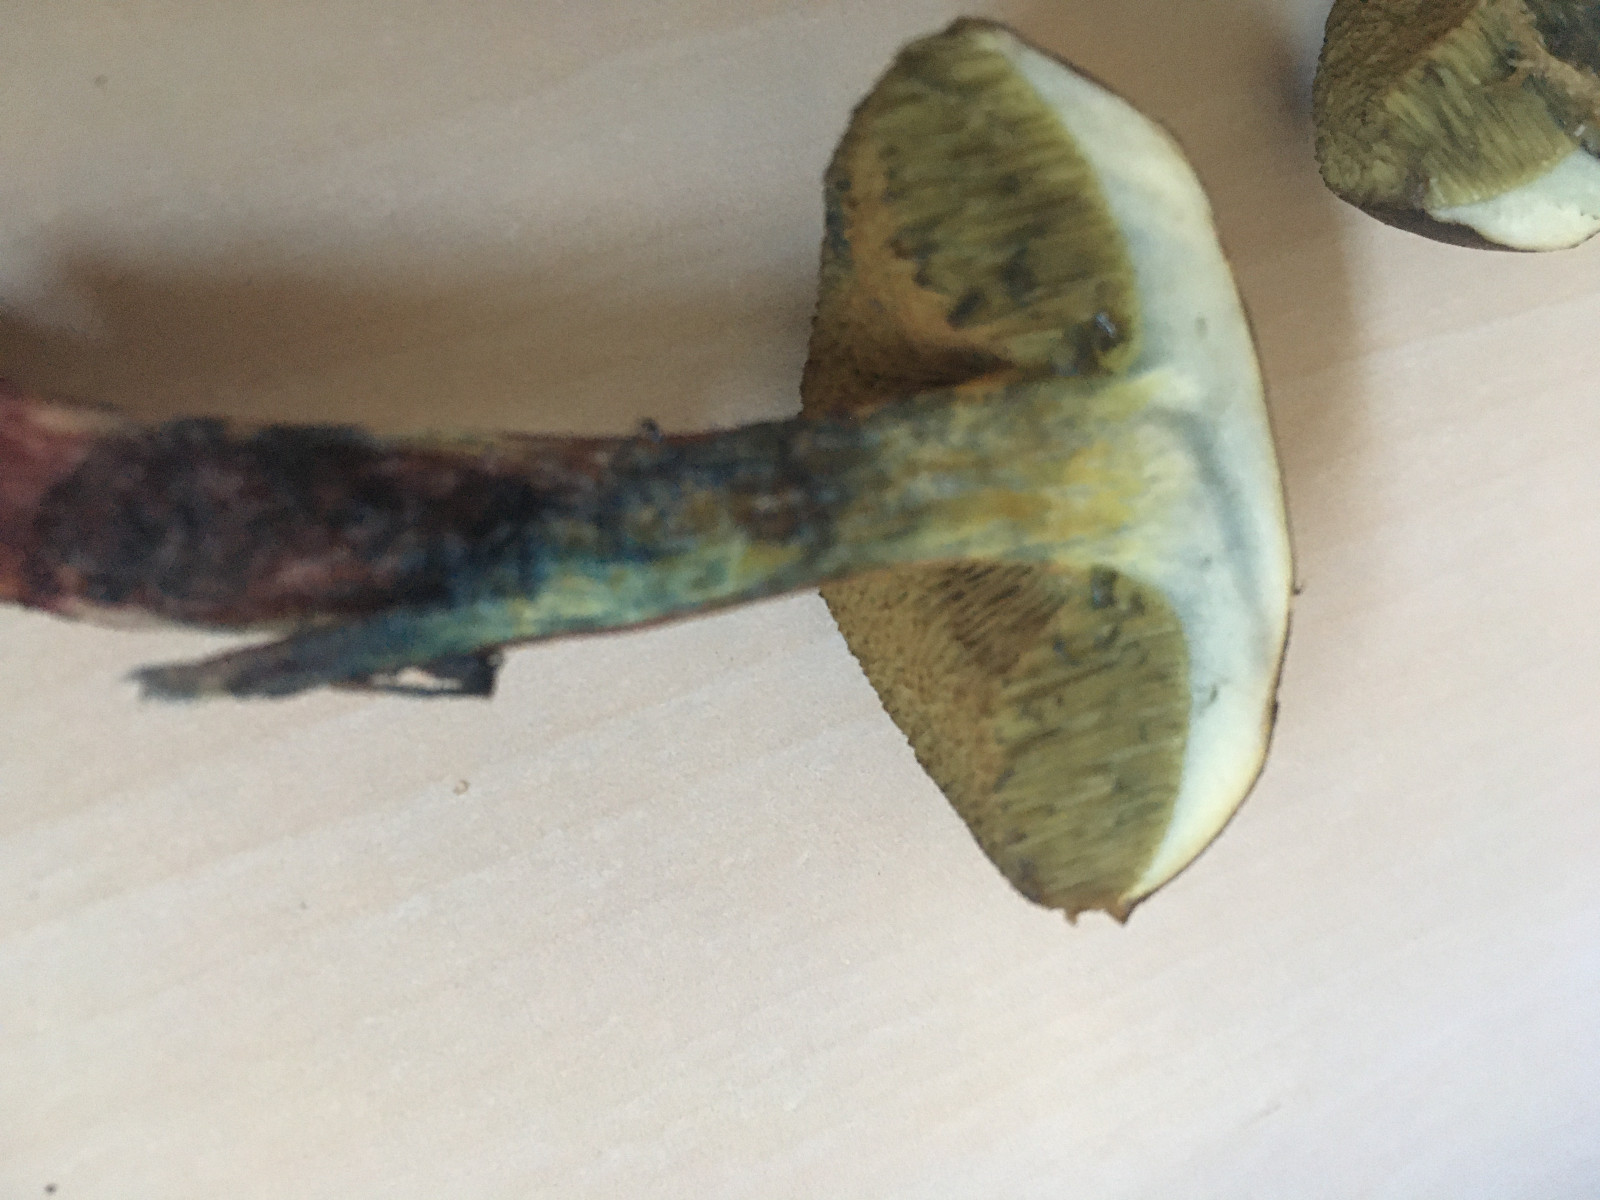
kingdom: Fungi
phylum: Basidiomycota
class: Agaricomycetes
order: Boletales
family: Boletaceae
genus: Xerocomellus
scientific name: Xerocomellus cisalpinus
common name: finsprukken rørhat
